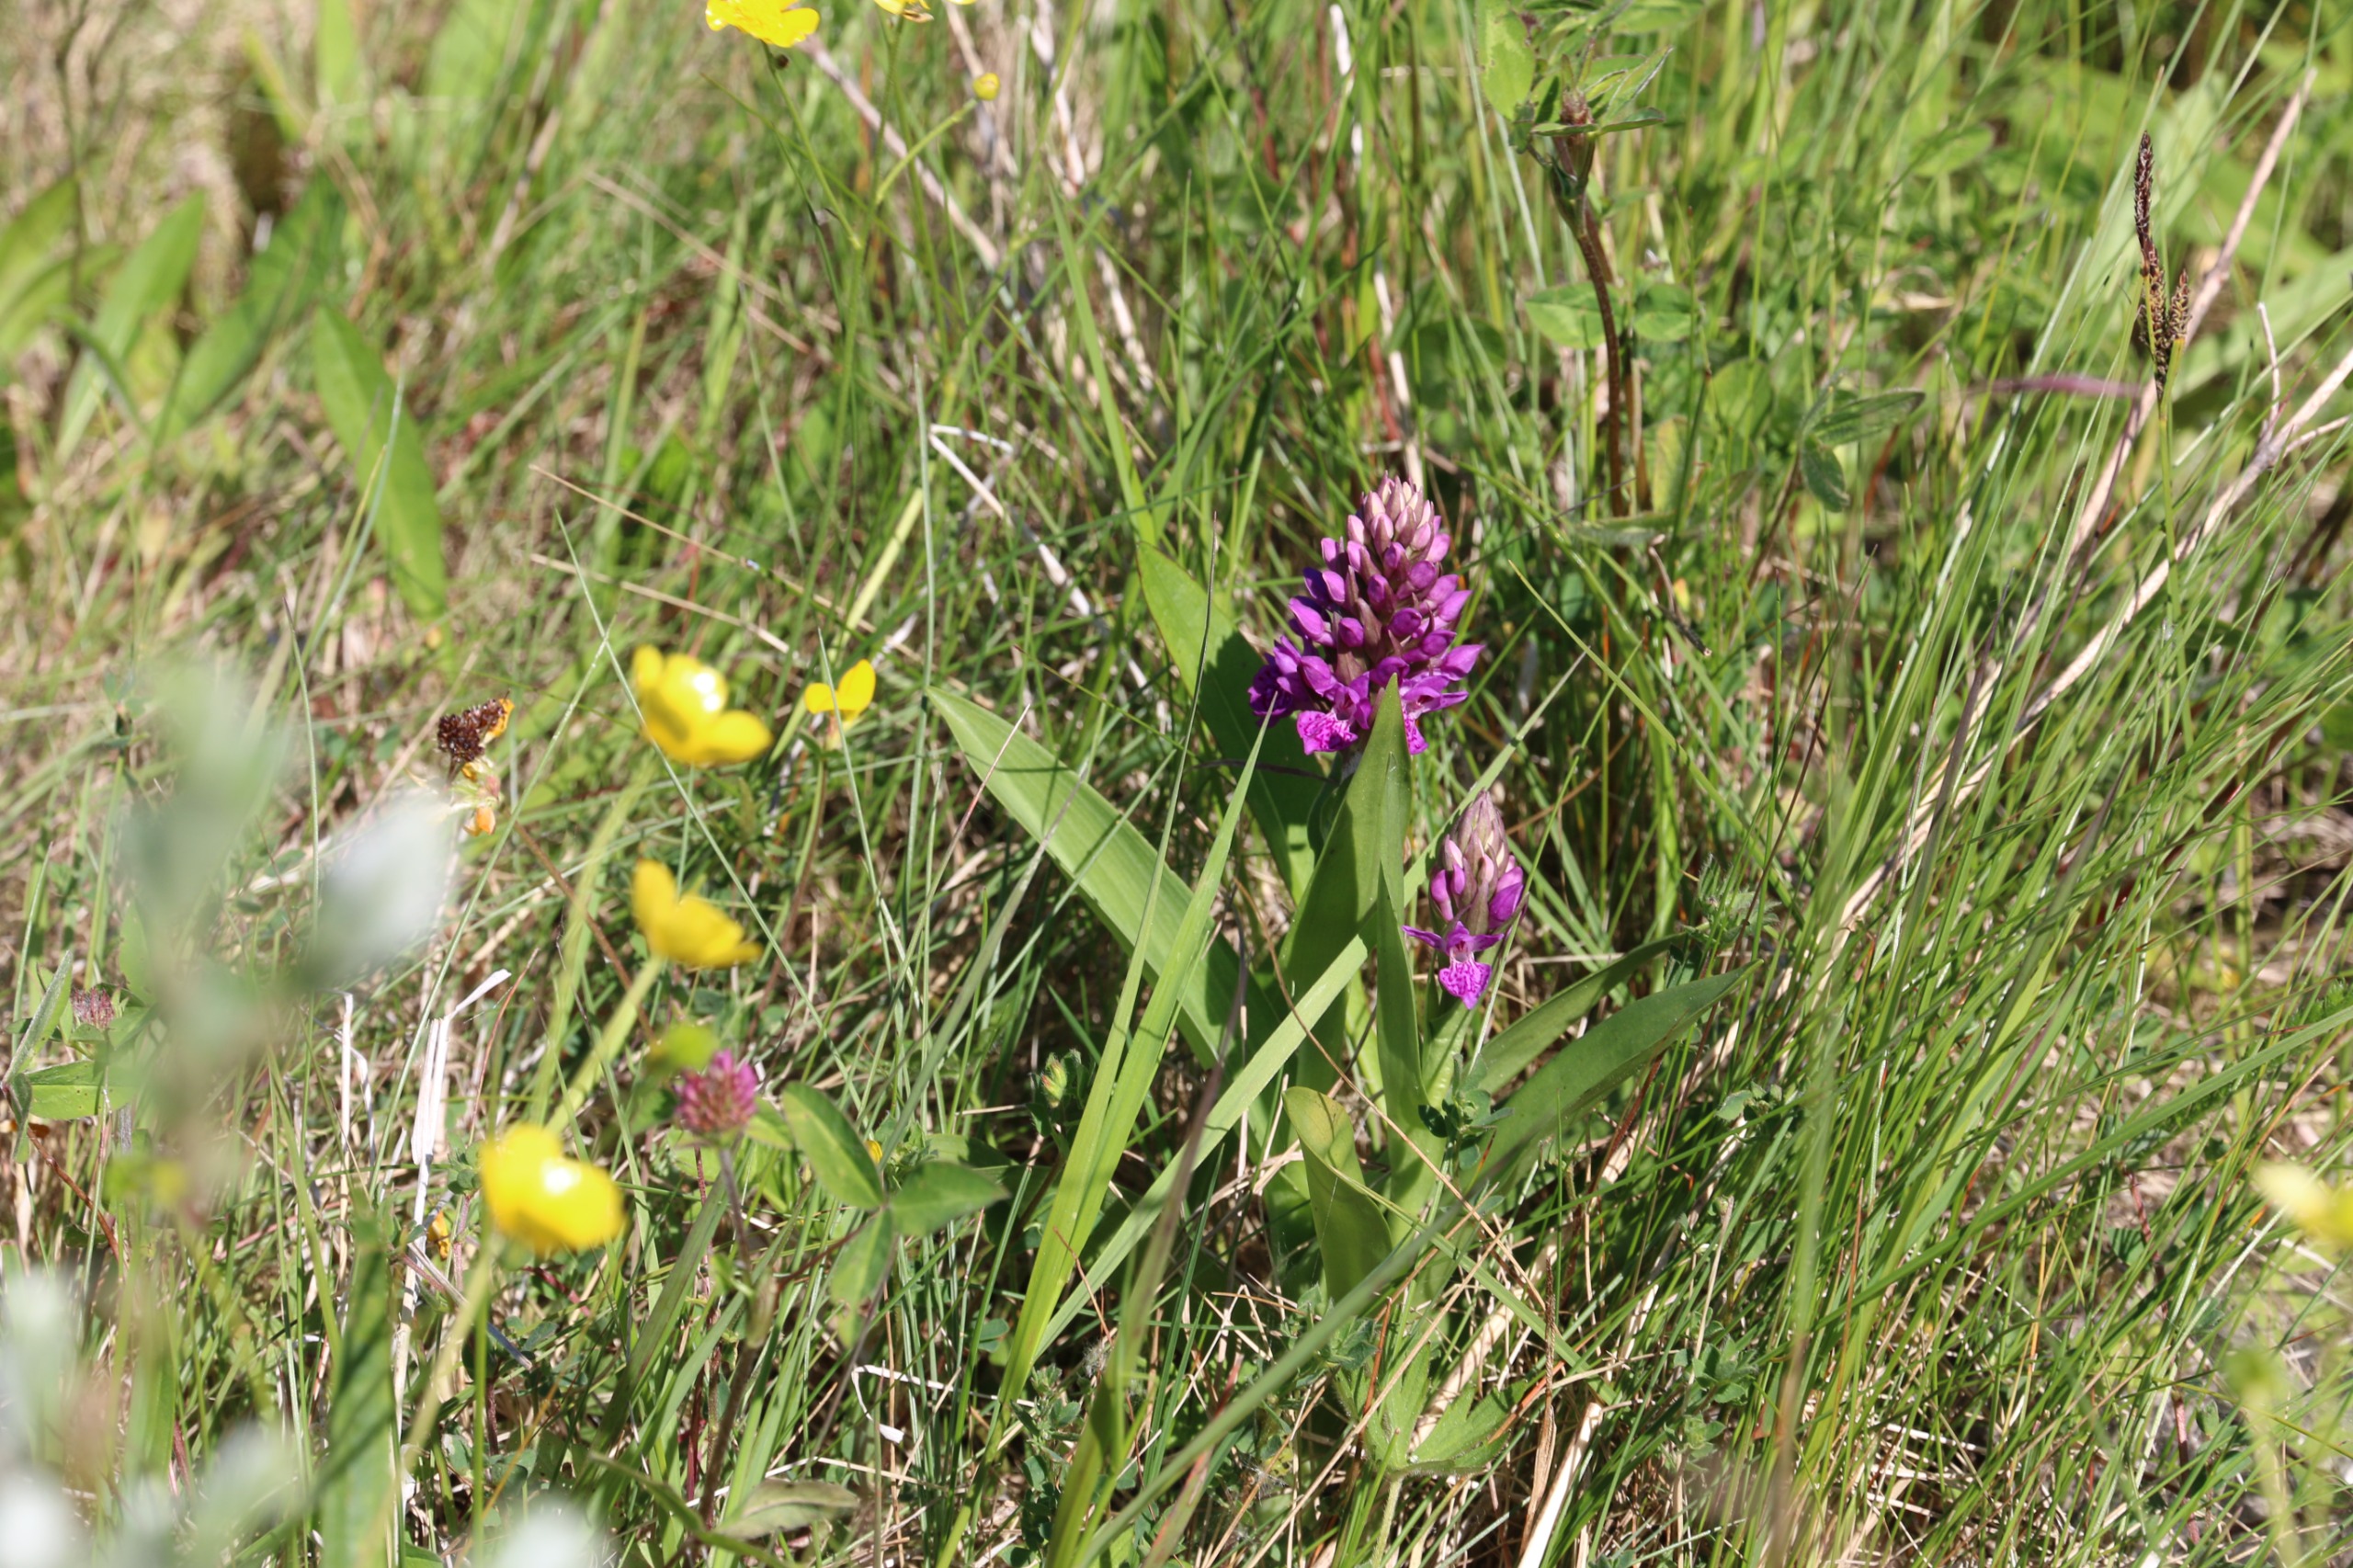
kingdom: Plantae
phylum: Tracheophyta
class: Liliopsida
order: Asparagales
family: Orchidaceae
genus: Dactylorhiza
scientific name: Dactylorhiza majalis
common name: Purpur-gøgeurt
